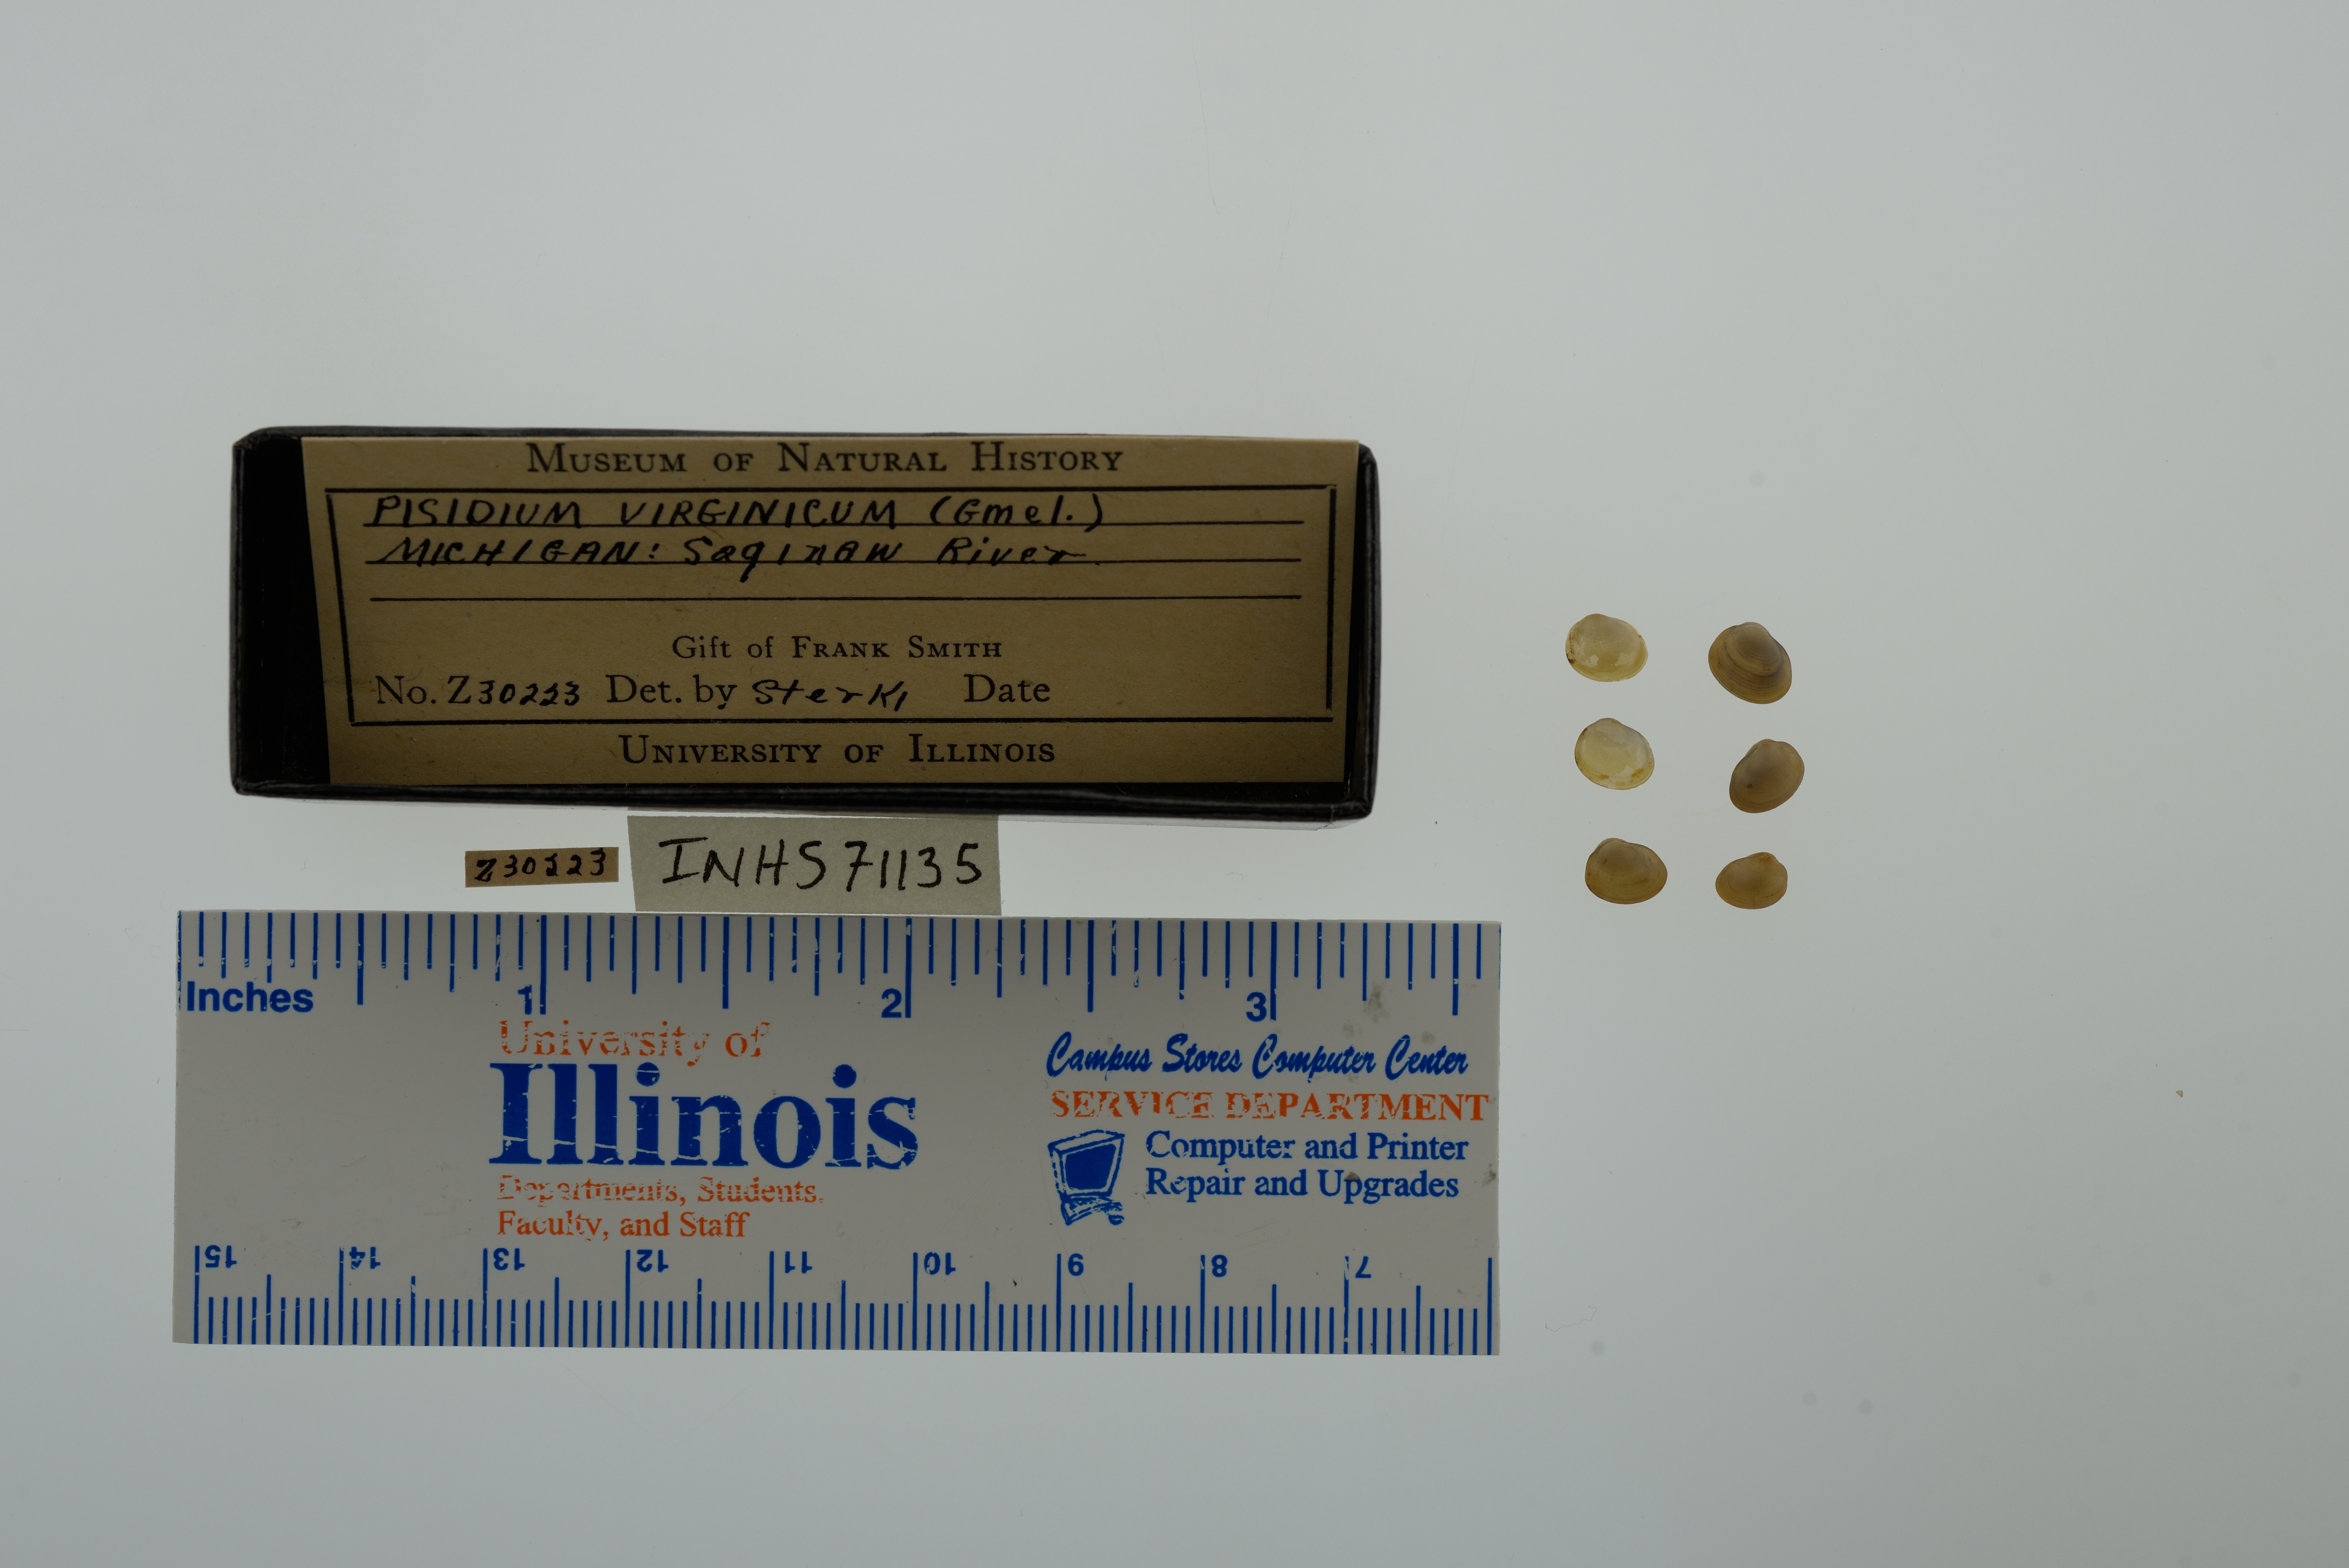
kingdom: Animalia
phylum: Mollusca
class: Bivalvia
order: Sphaeriida
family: Sphaeriidae
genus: Pisidium
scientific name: Pisidium dubium
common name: Greater eastern peaclam
